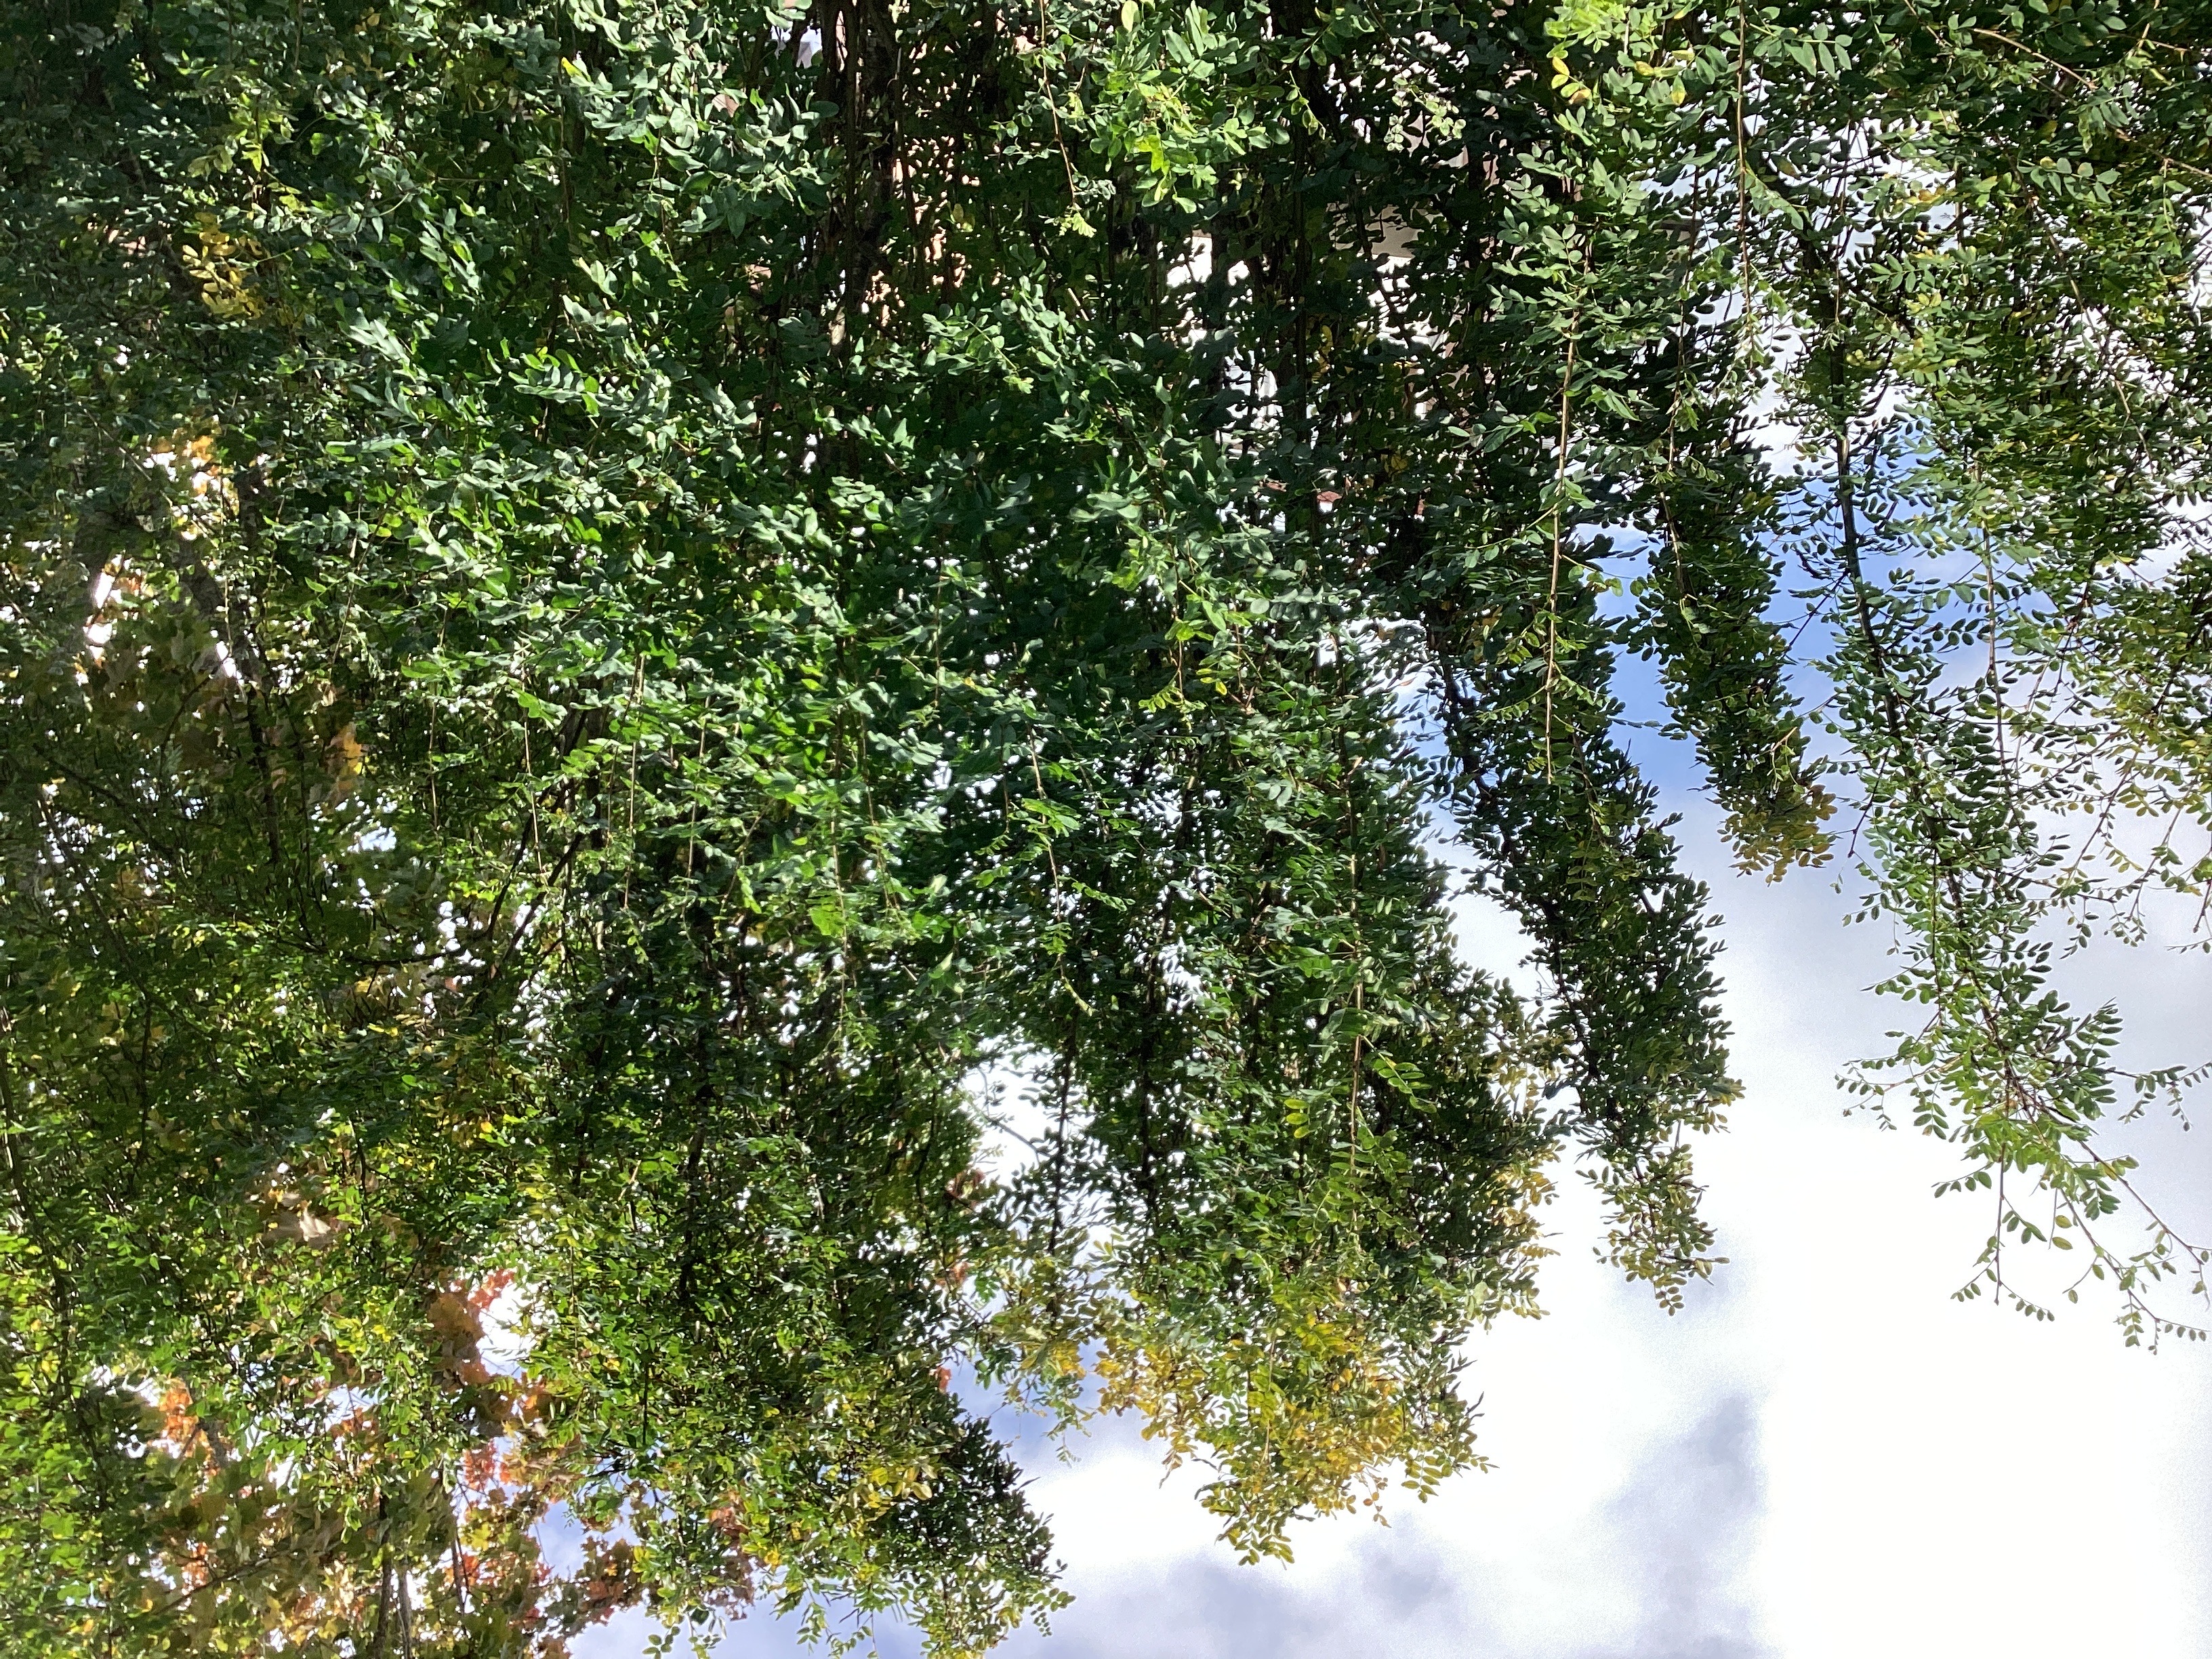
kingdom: Plantae
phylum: Tracheophyta
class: Magnoliopsida
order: Fabales
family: Fabaceae
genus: Caragana
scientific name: Caragana arborescens
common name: sibirertebusk
